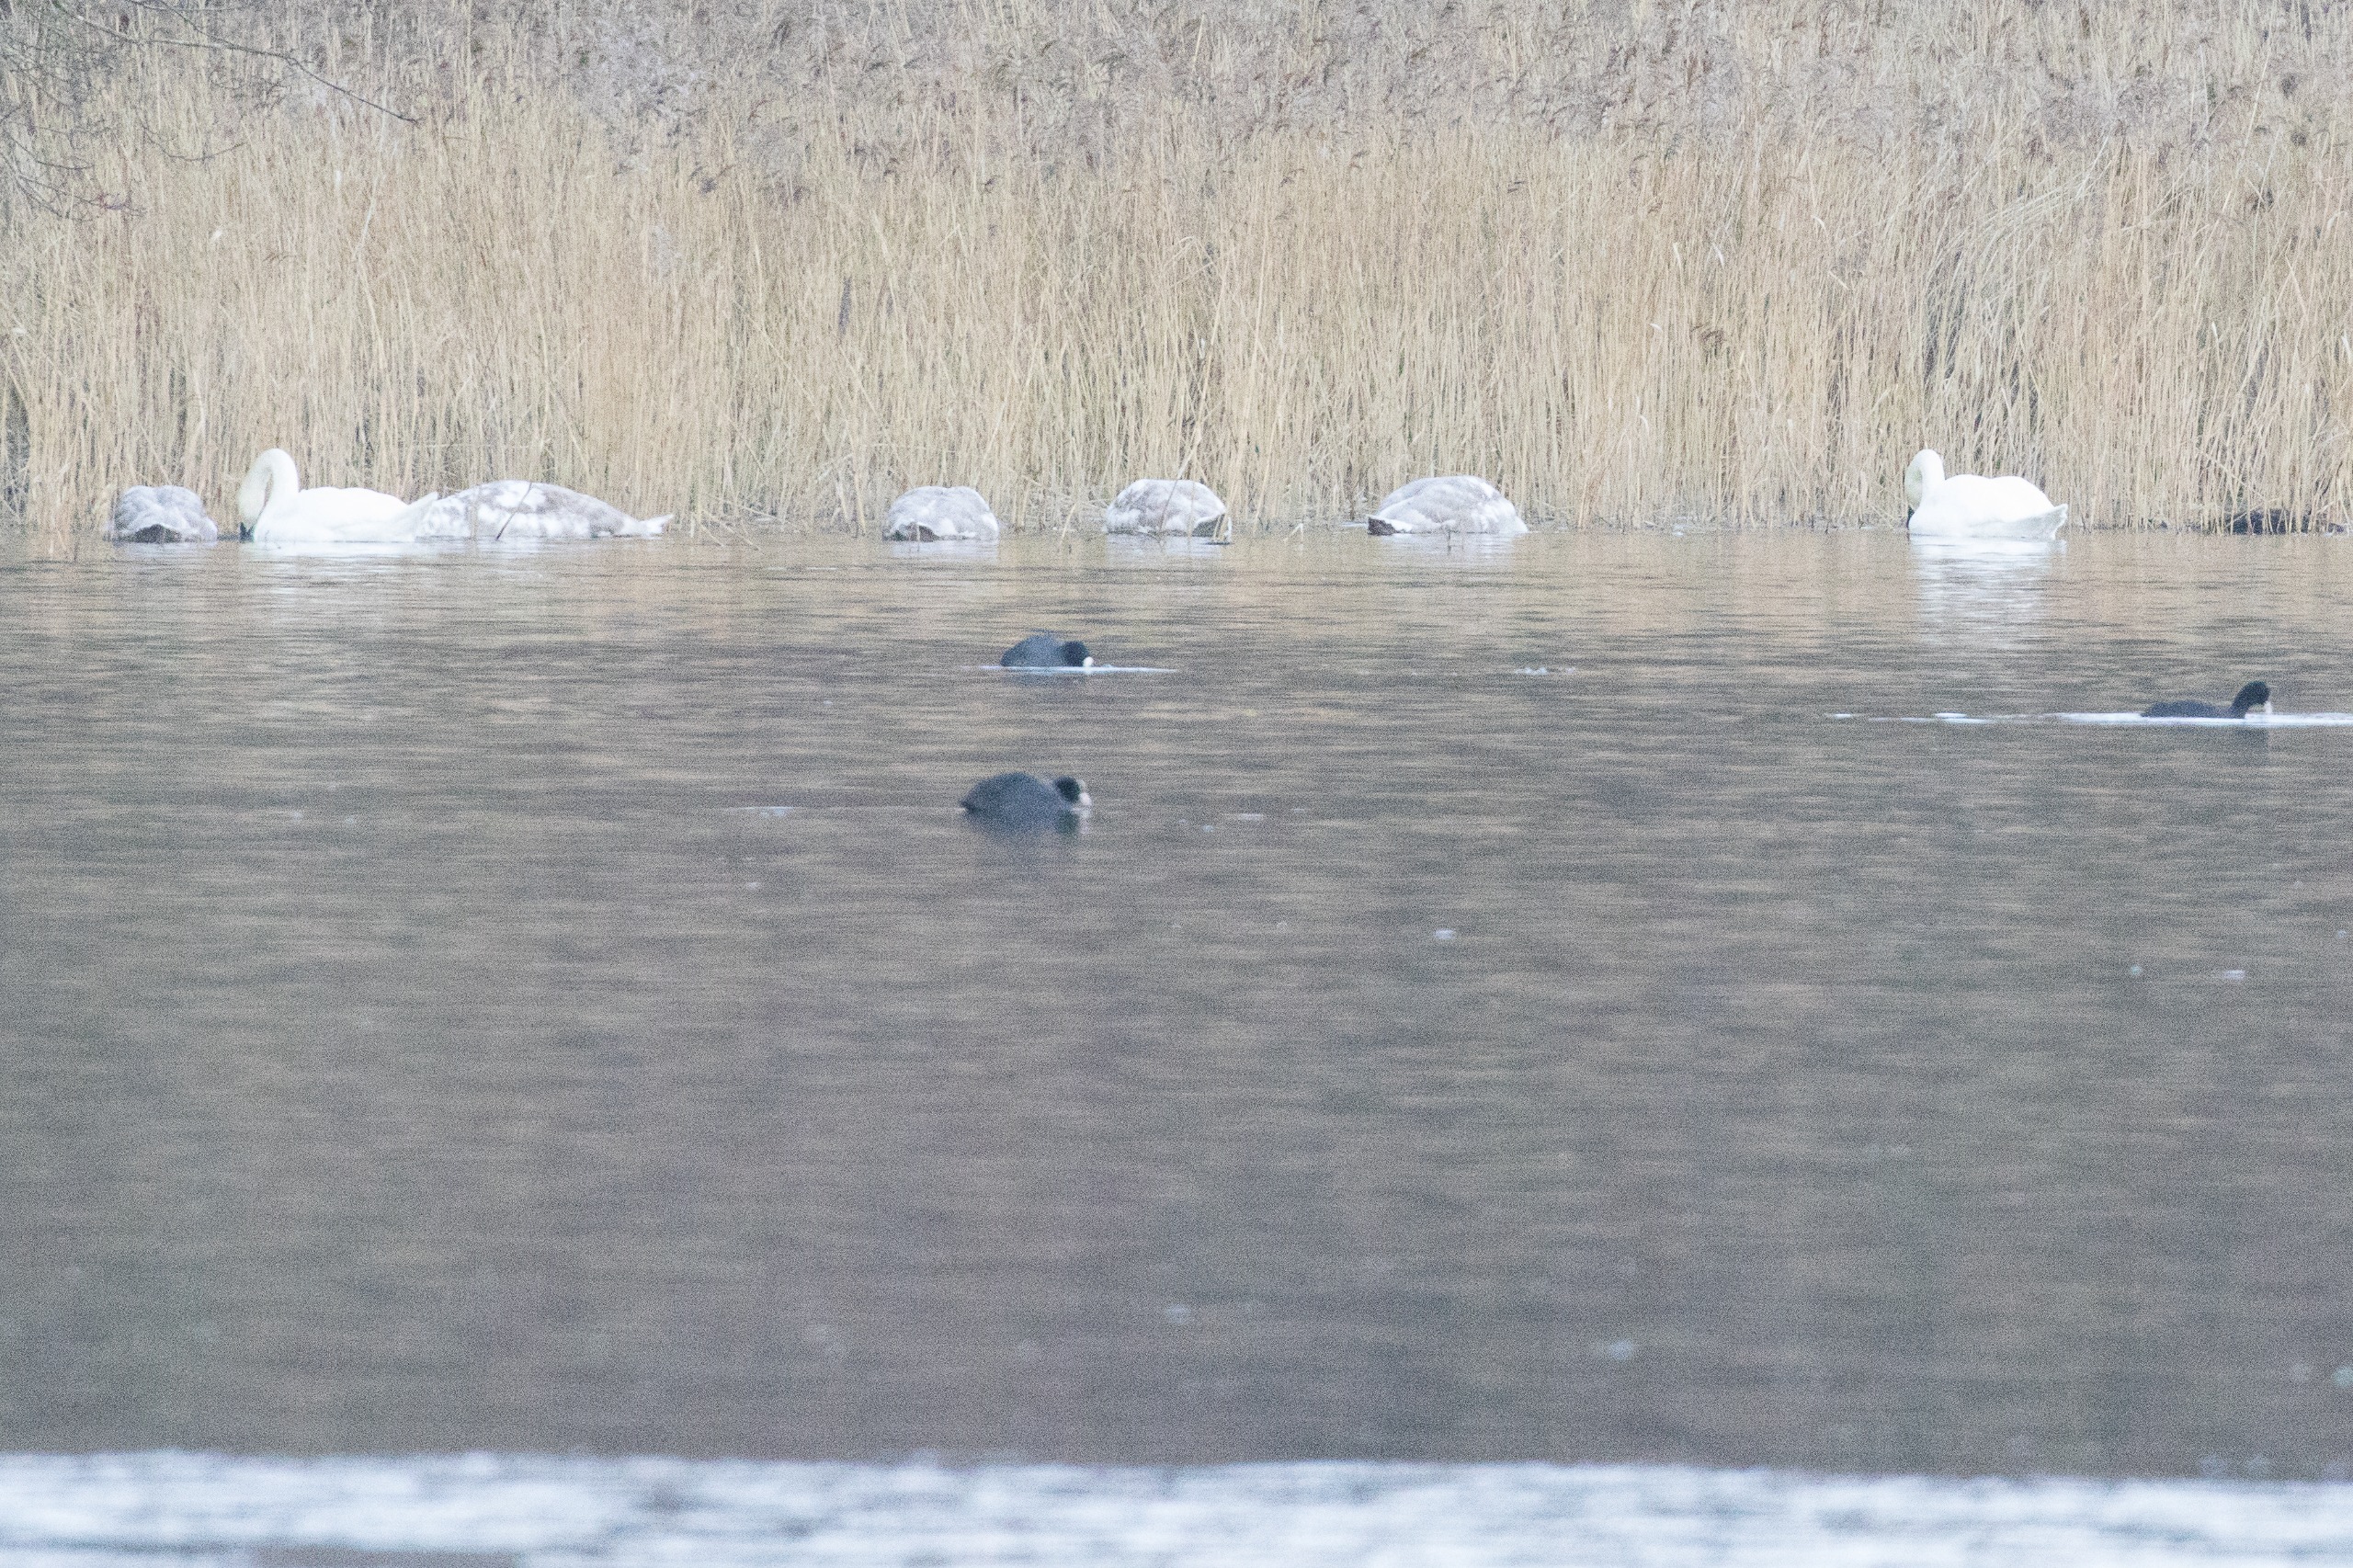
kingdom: Animalia
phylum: Chordata
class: Aves
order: Anseriformes
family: Anatidae
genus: Cygnus
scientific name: Cygnus olor
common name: Knopsvane
